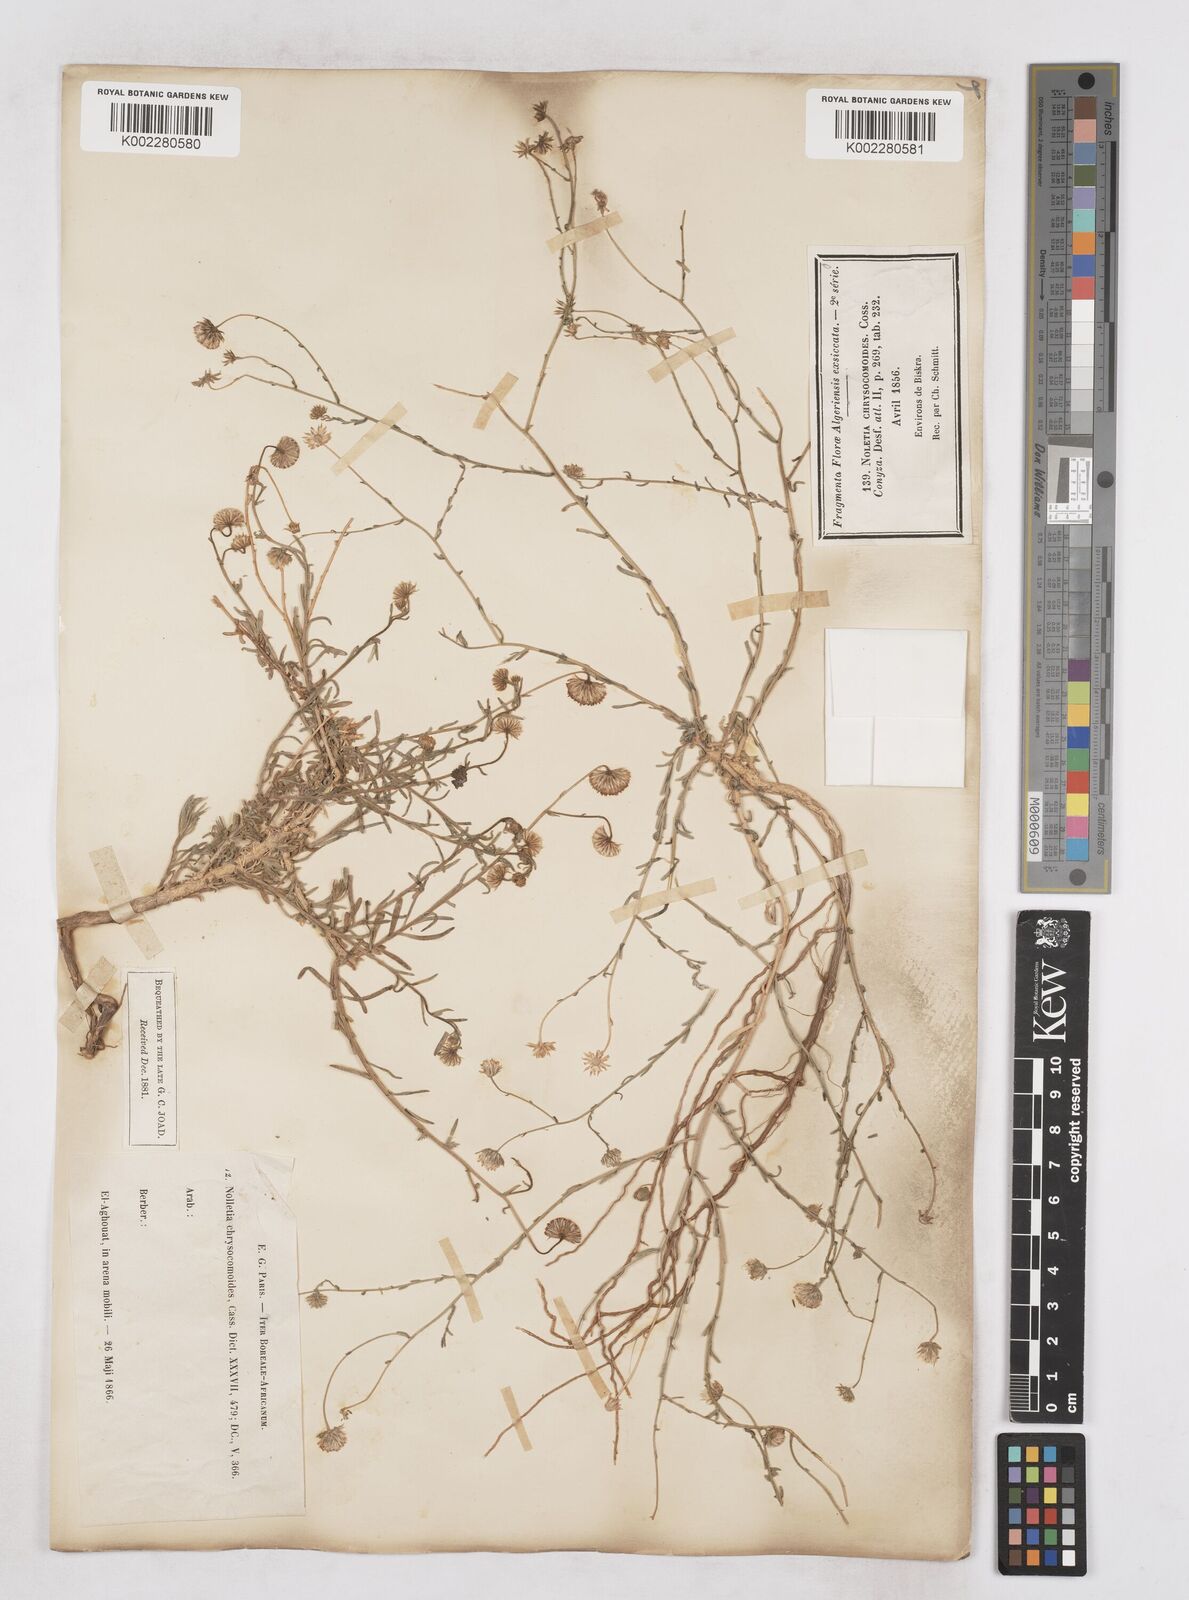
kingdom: Plantae
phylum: Tracheophyta
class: Magnoliopsida
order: Asterales
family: Asteraceae
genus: Nolletia
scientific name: Nolletia chrysocomoides
